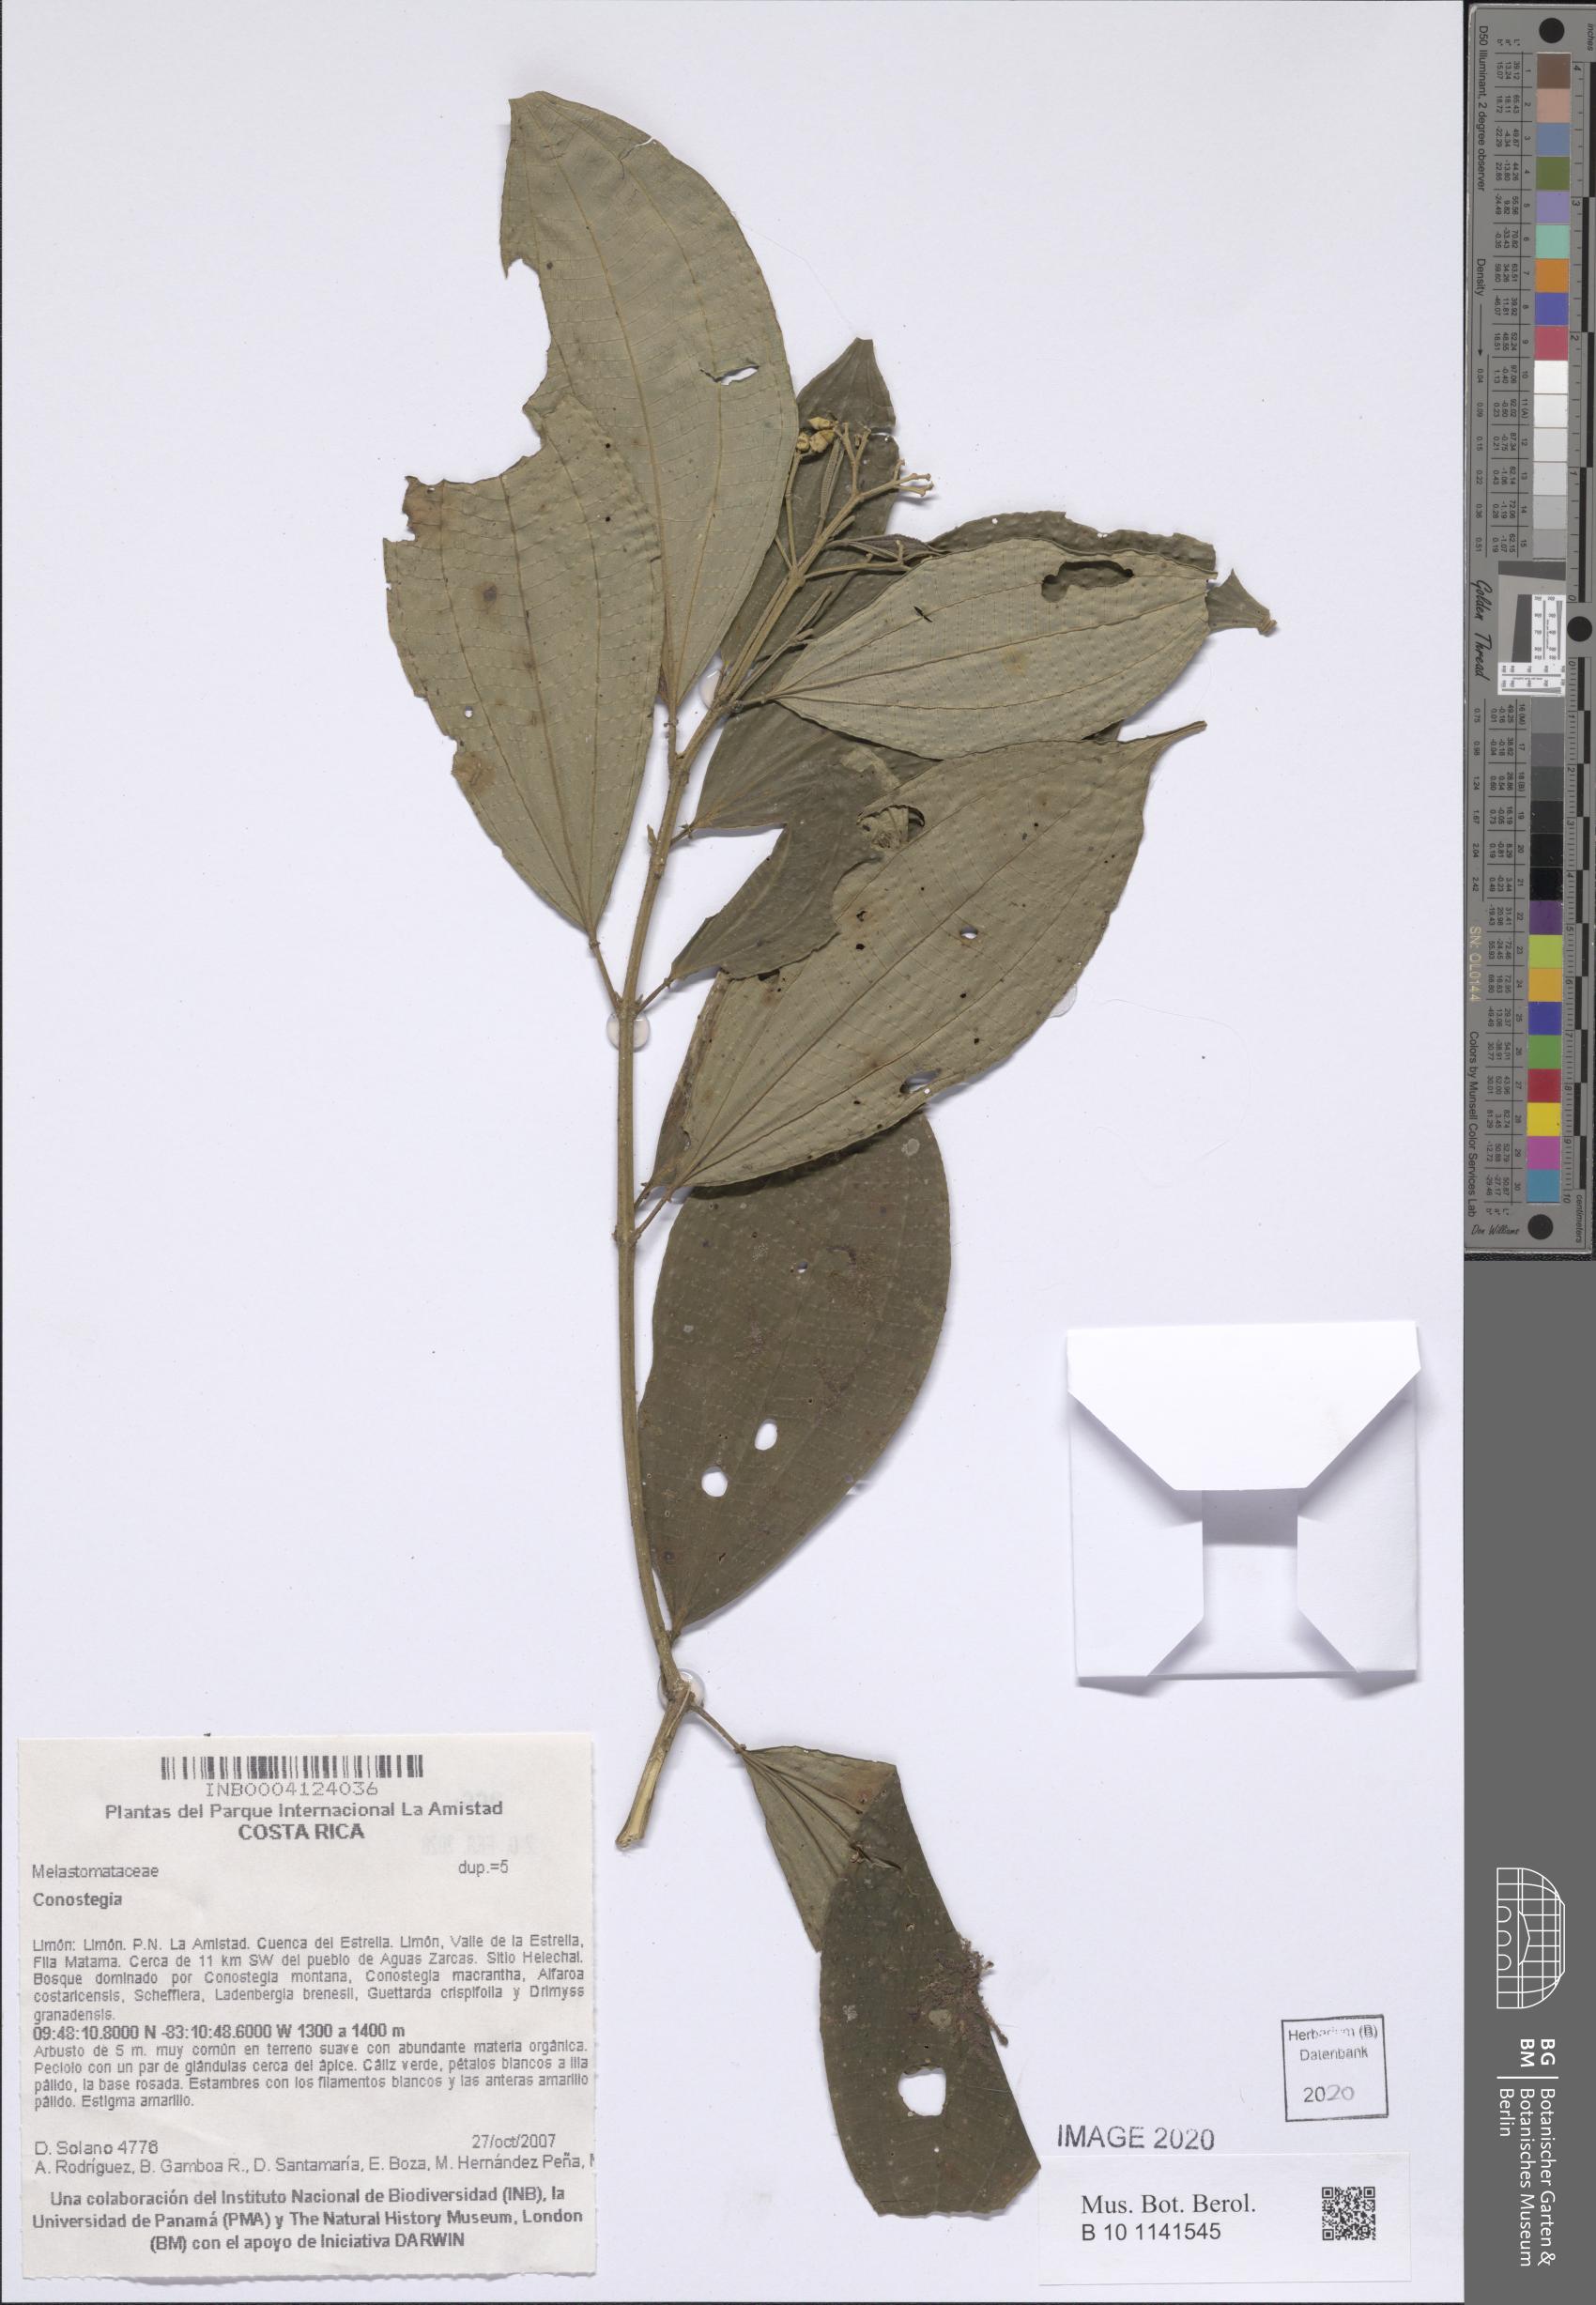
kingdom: Plantae
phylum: Tracheophyta
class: Magnoliopsida
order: Myrtales
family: Melastomataceae
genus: Miconia
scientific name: Miconia
